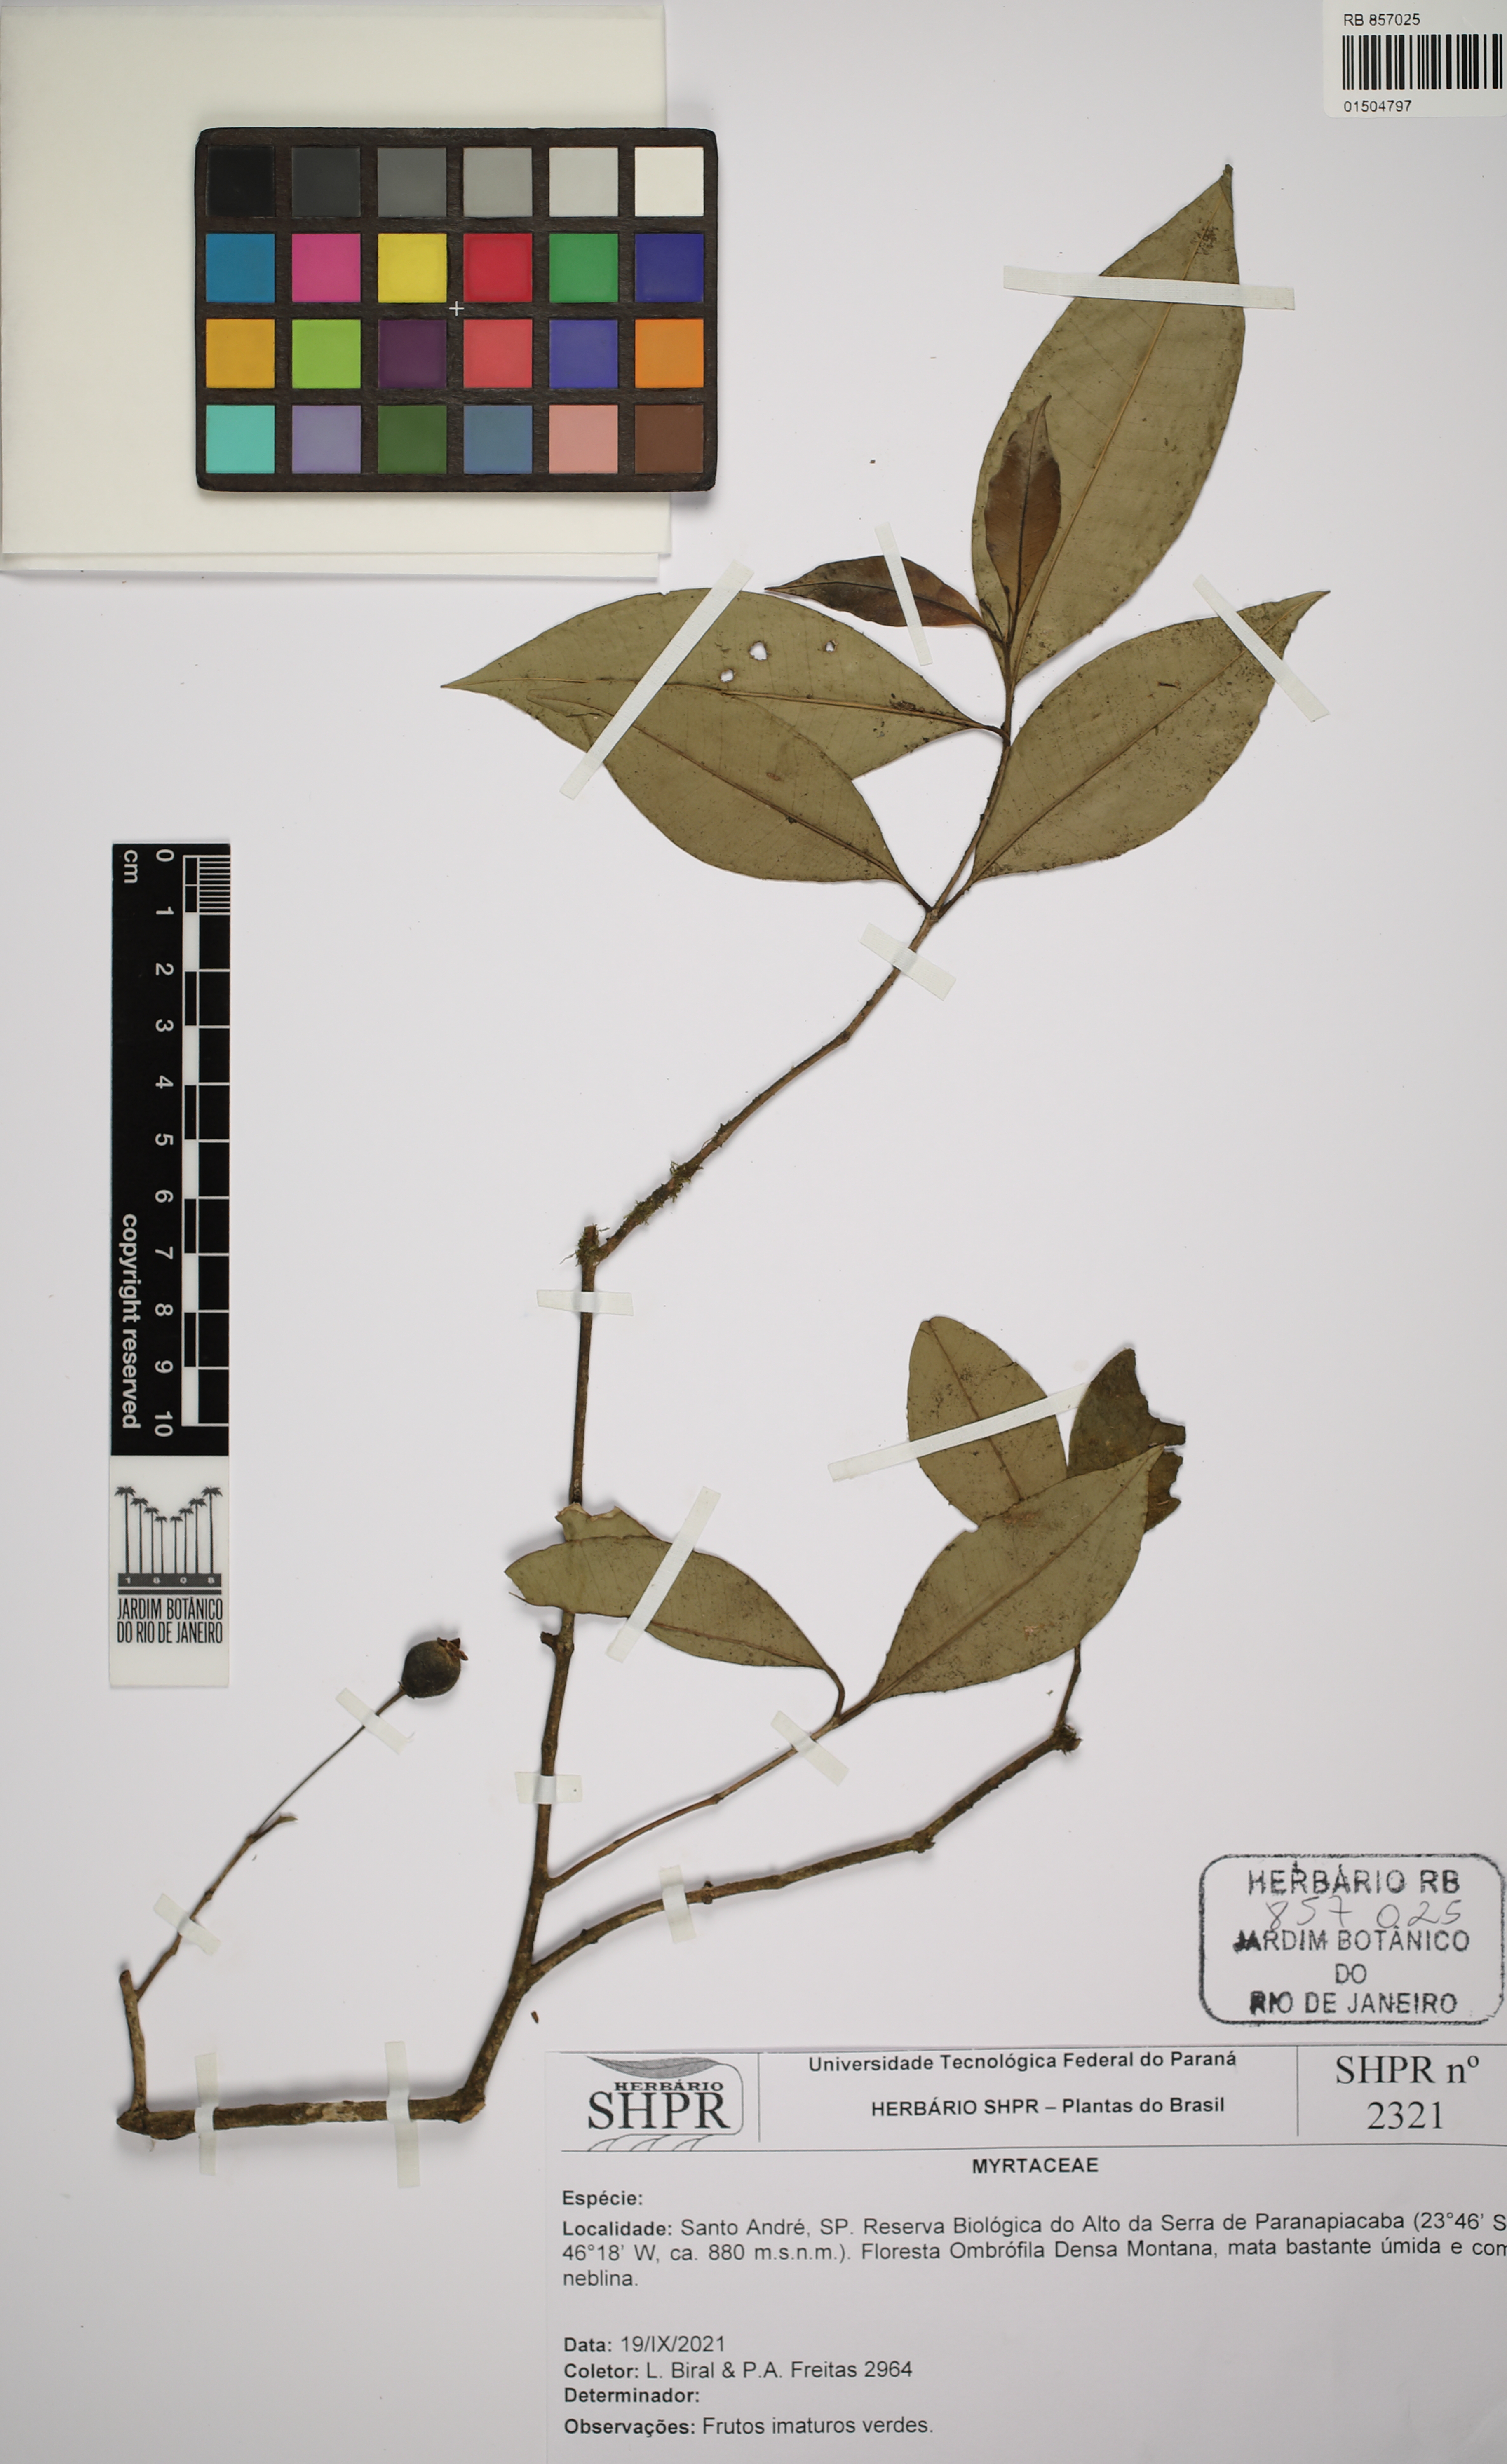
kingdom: Plantae
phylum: Tracheophyta
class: Magnoliopsida
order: Myrtales
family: Myrtaceae
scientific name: Myrtaceae
